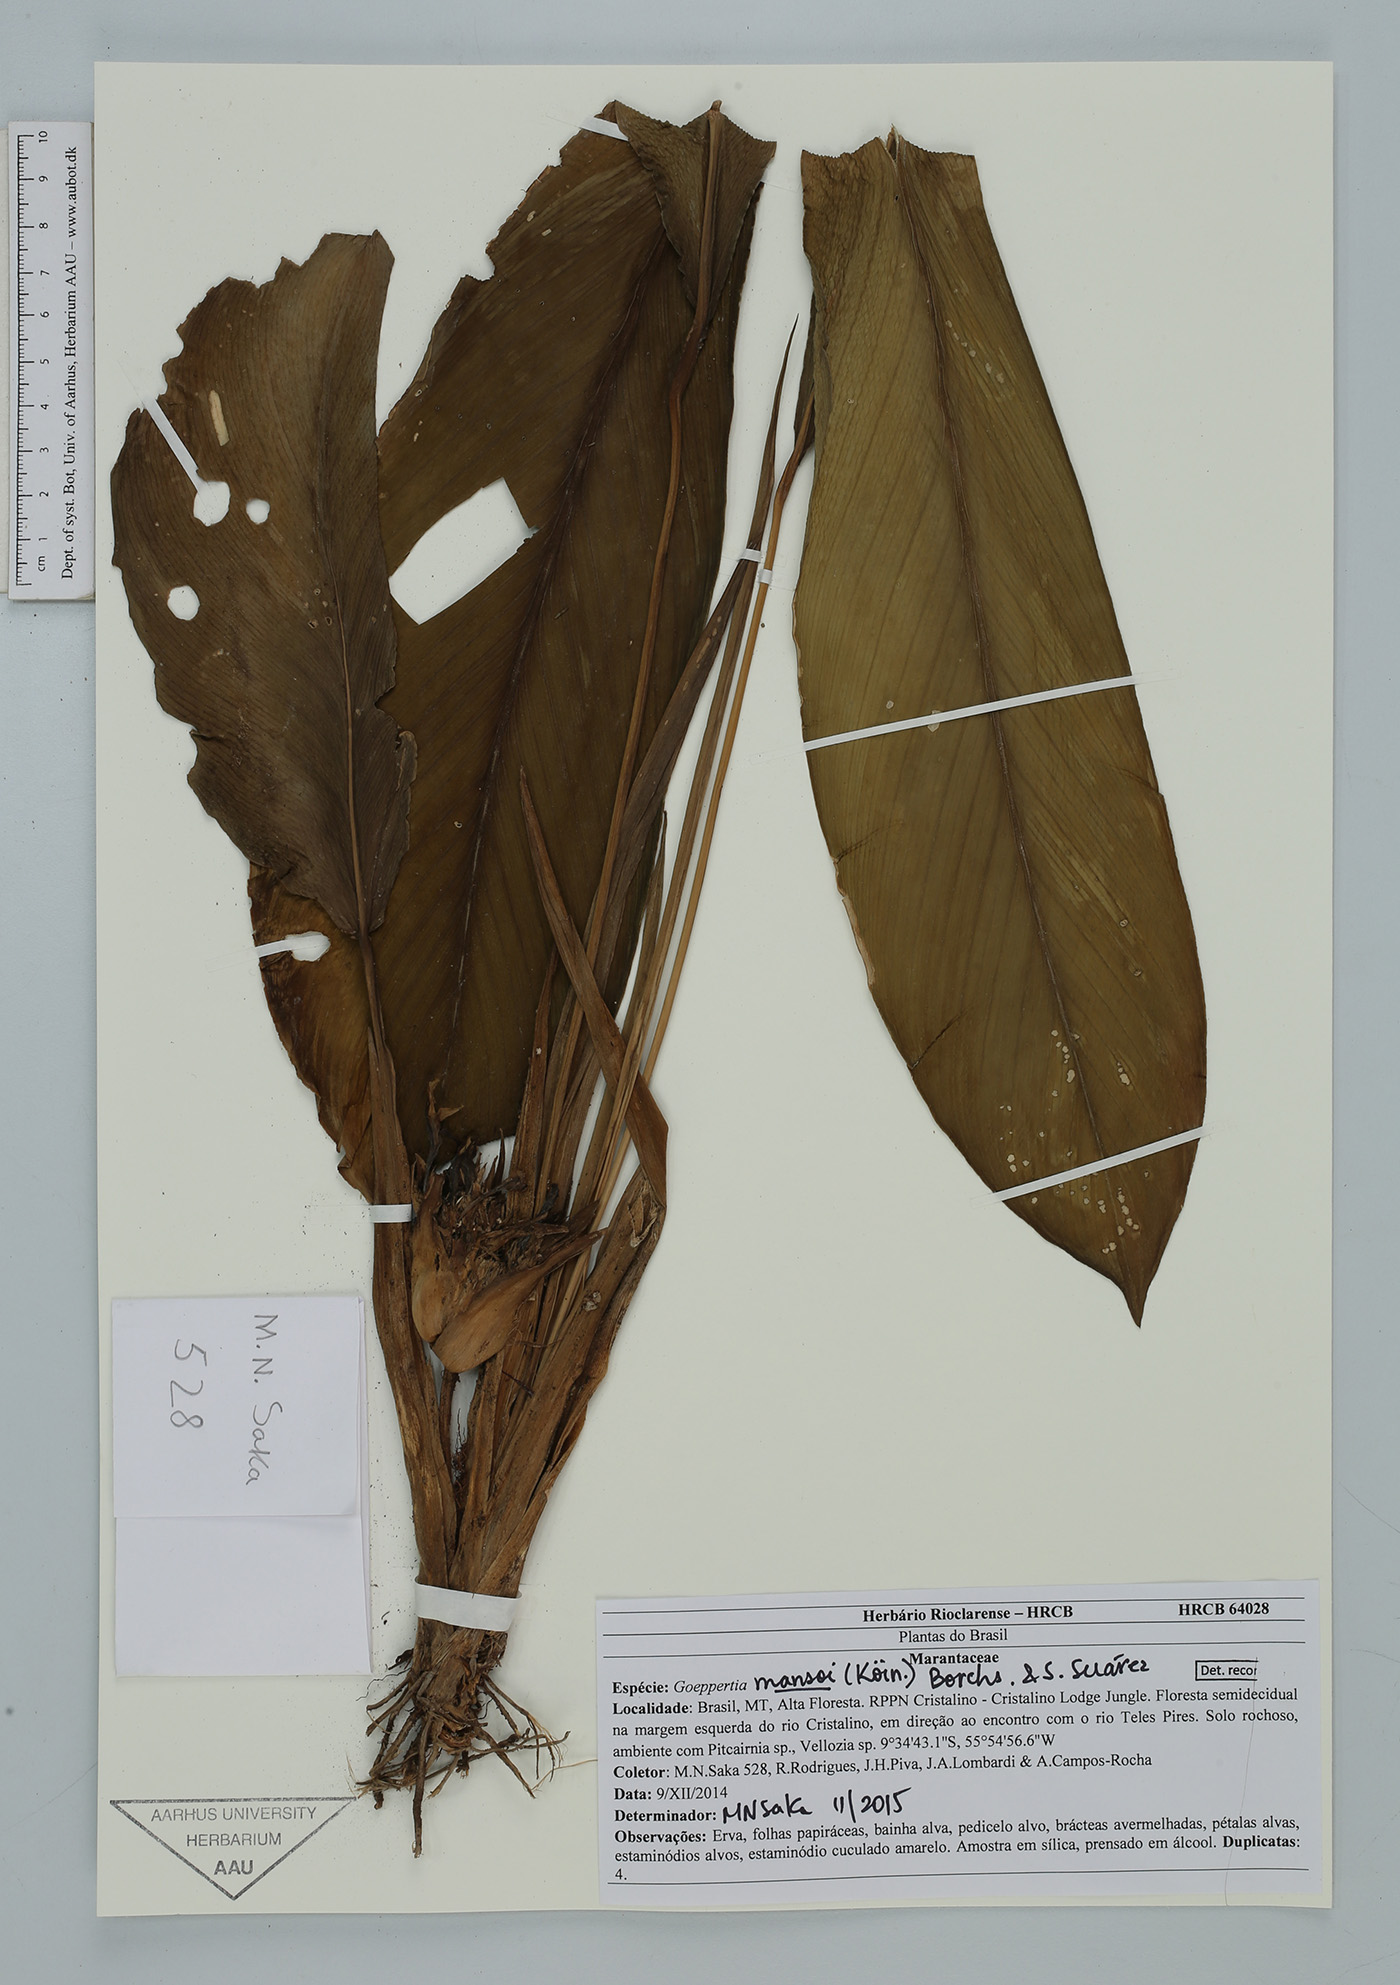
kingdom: Plantae
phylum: Tracheophyta
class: Liliopsida
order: Zingiberales
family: Marantaceae
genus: Goeppertia
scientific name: Goeppertia mansoi
